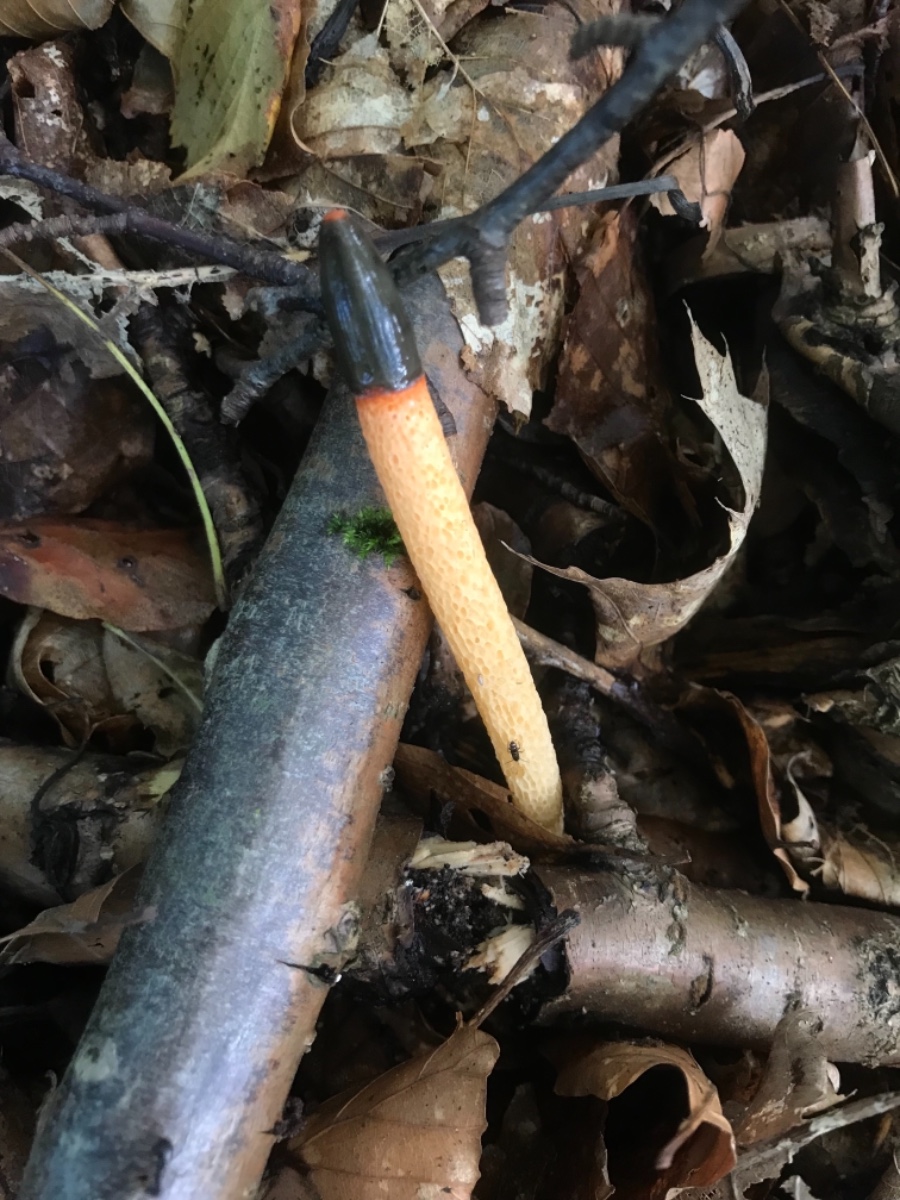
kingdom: Fungi
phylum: Basidiomycota
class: Agaricomycetes
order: Phallales
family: Phallaceae
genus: Mutinus
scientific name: Mutinus caninus
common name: hunde-stinksvamp
